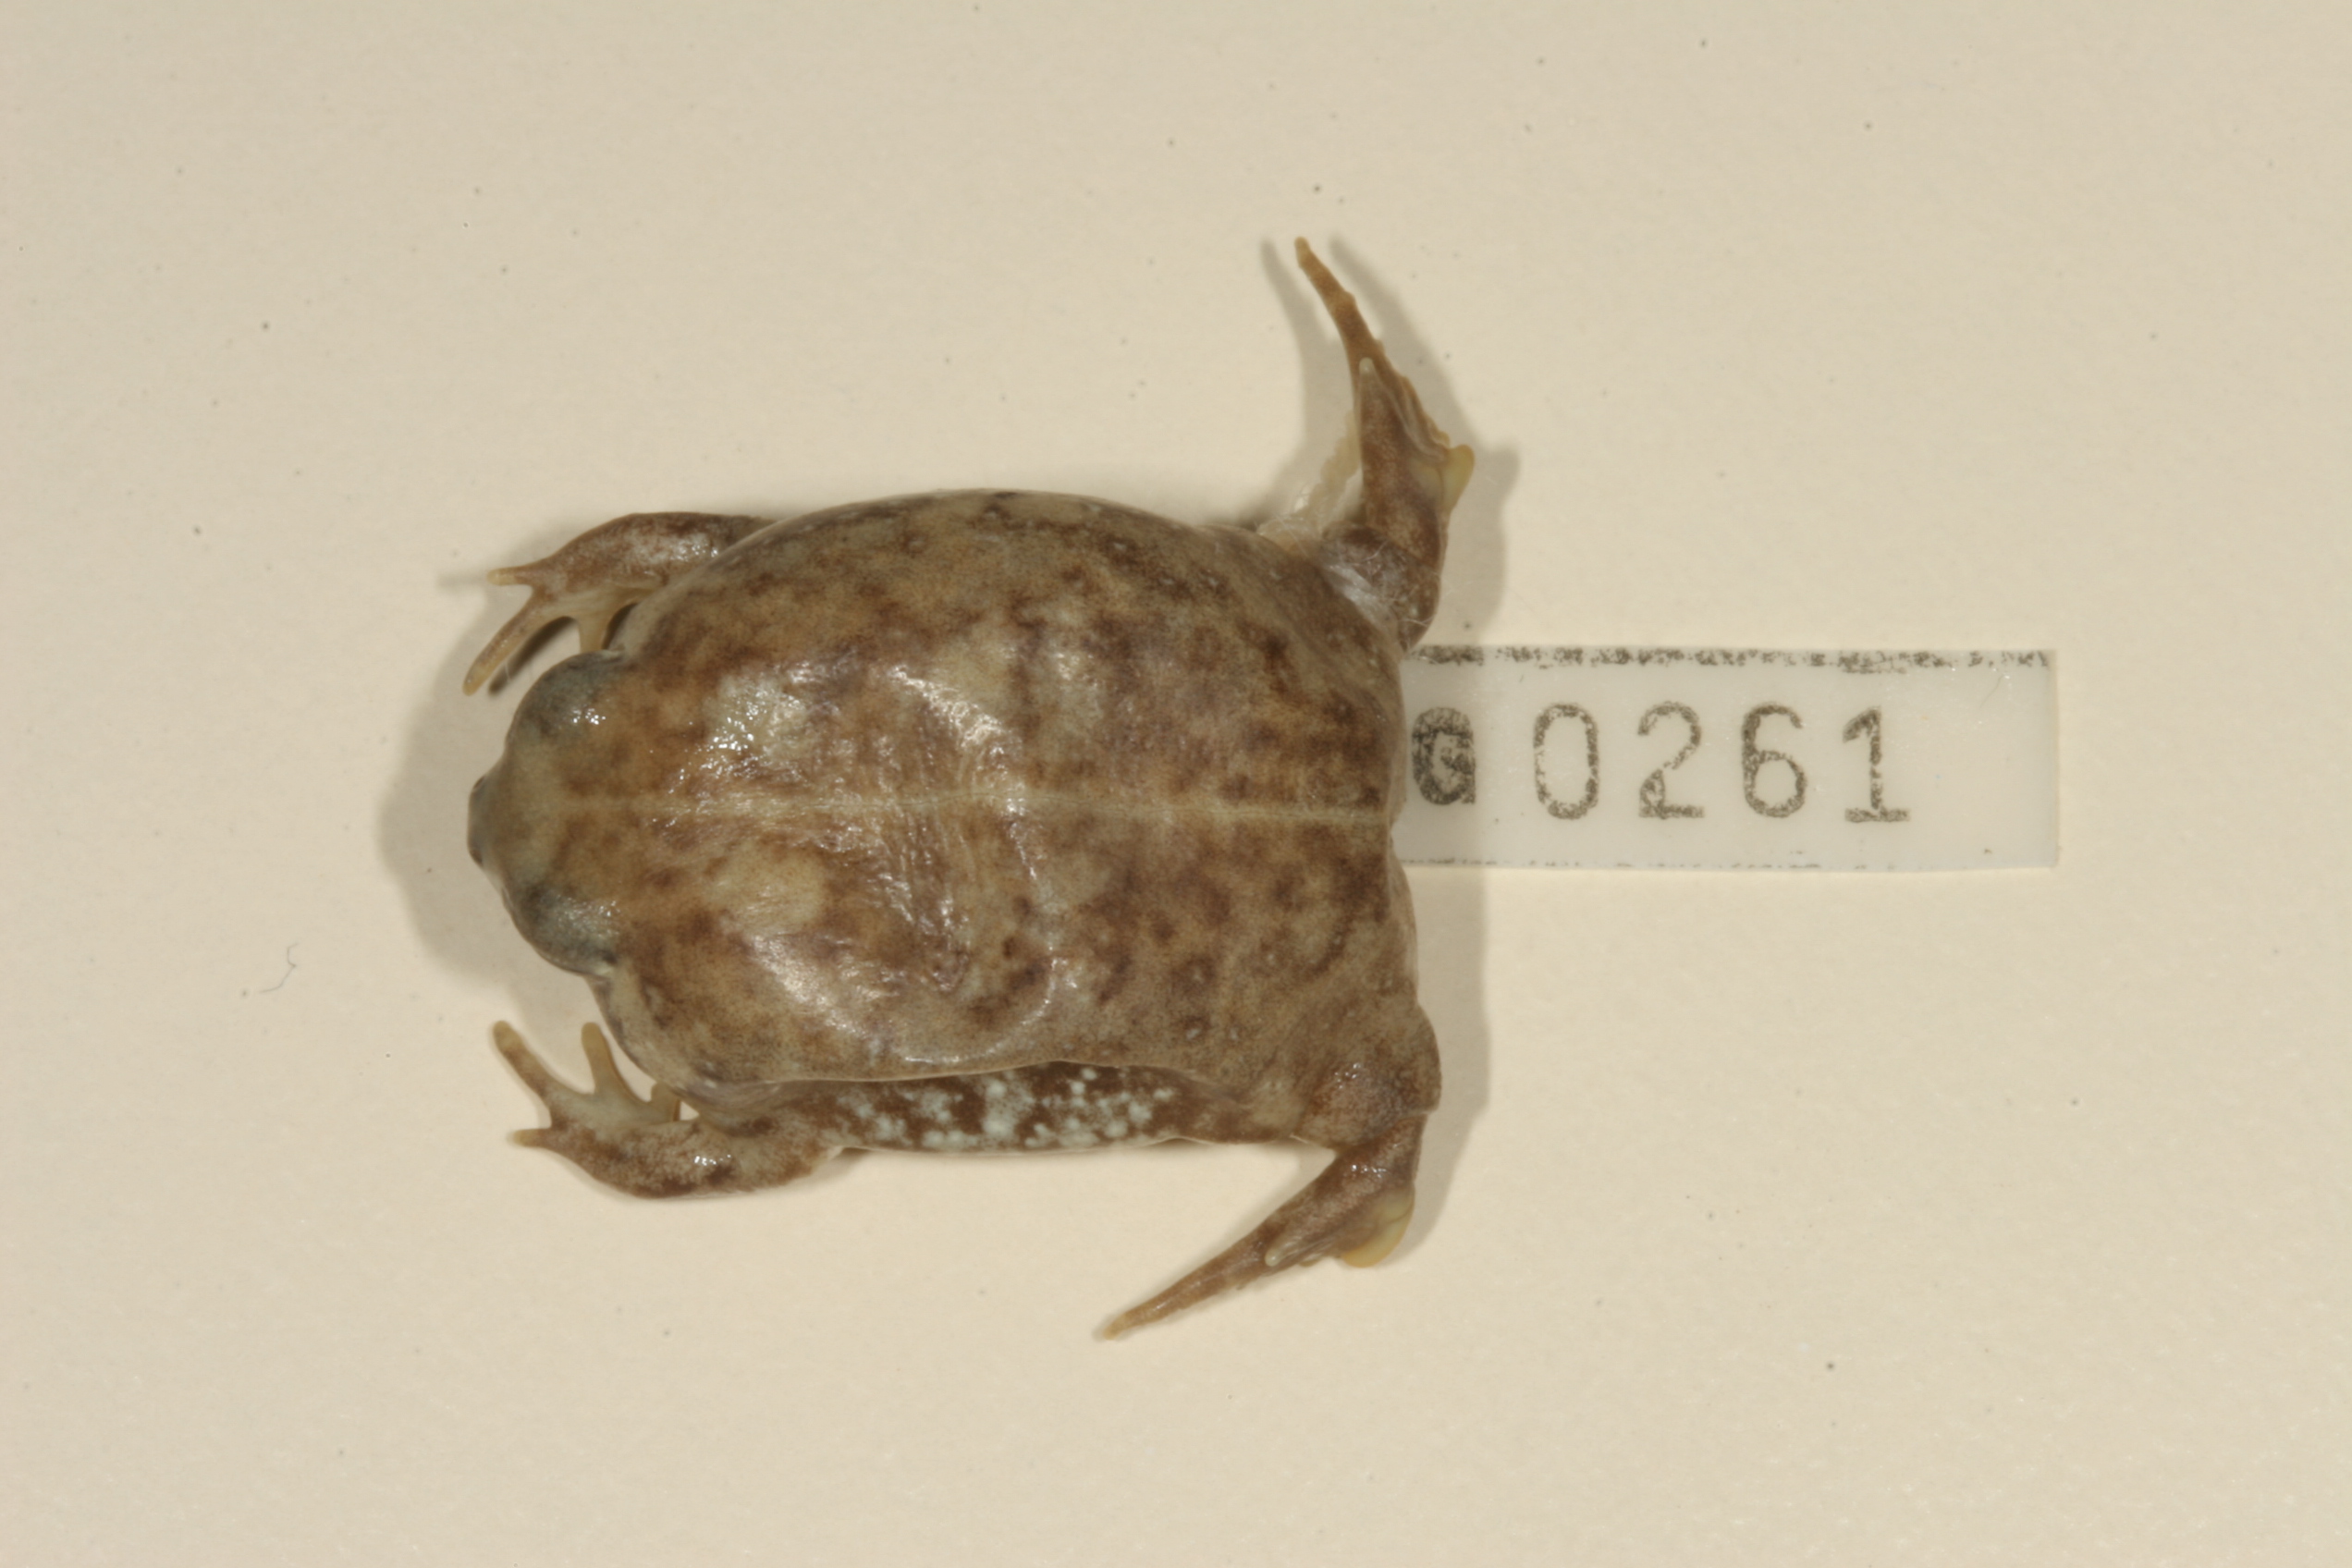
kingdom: Animalia
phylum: Chordata
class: Amphibia
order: Anura
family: Brevicipitidae
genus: Breviceps
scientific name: Breviceps adspersus
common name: Common rain frog
